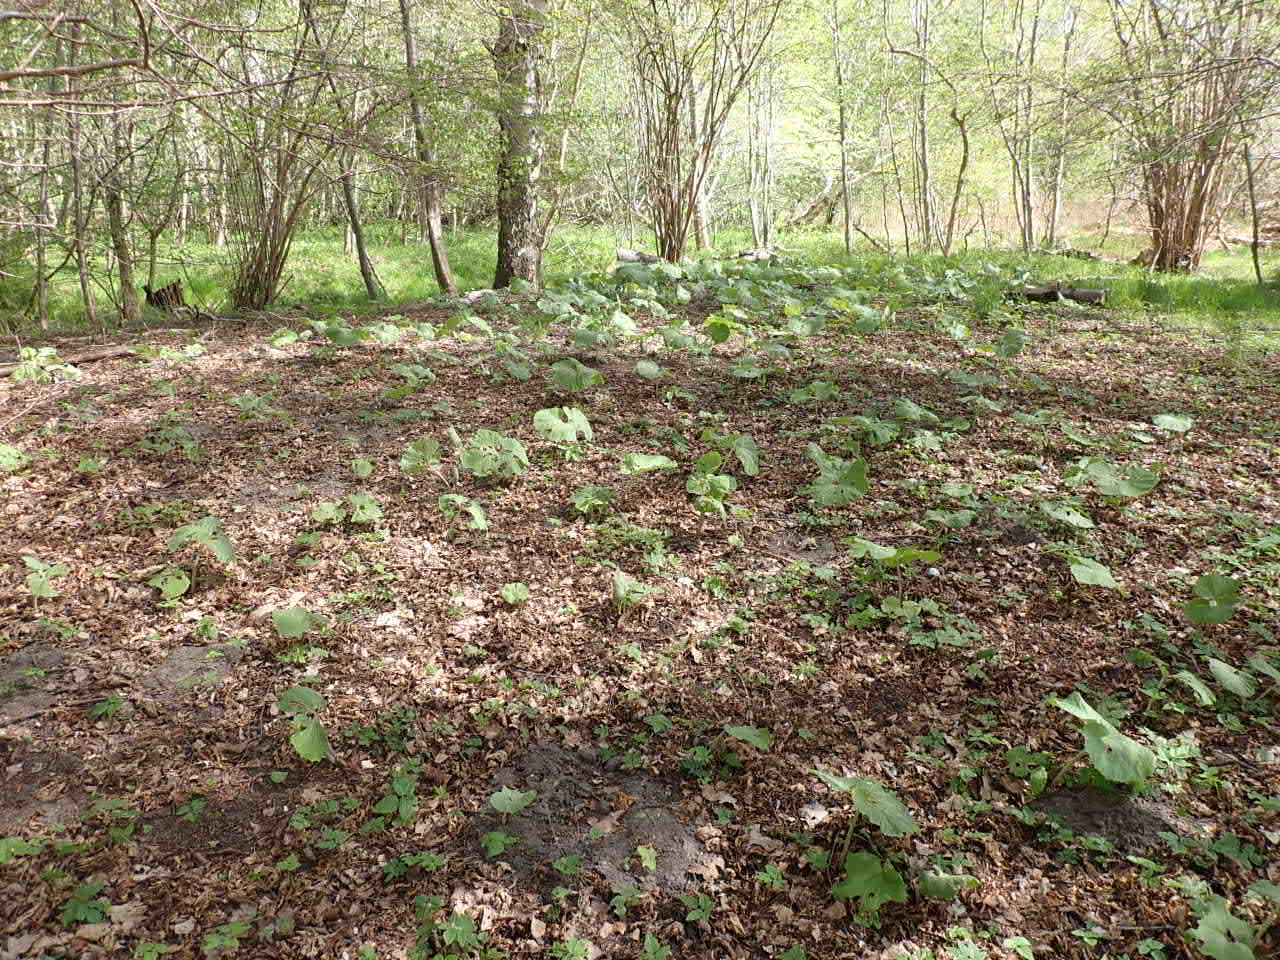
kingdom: Plantae
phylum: Tracheophyta
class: Magnoliopsida
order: Asterales
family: Asteraceae
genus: Petasites
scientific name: Petasites japonicus
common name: Japansk hestehov
